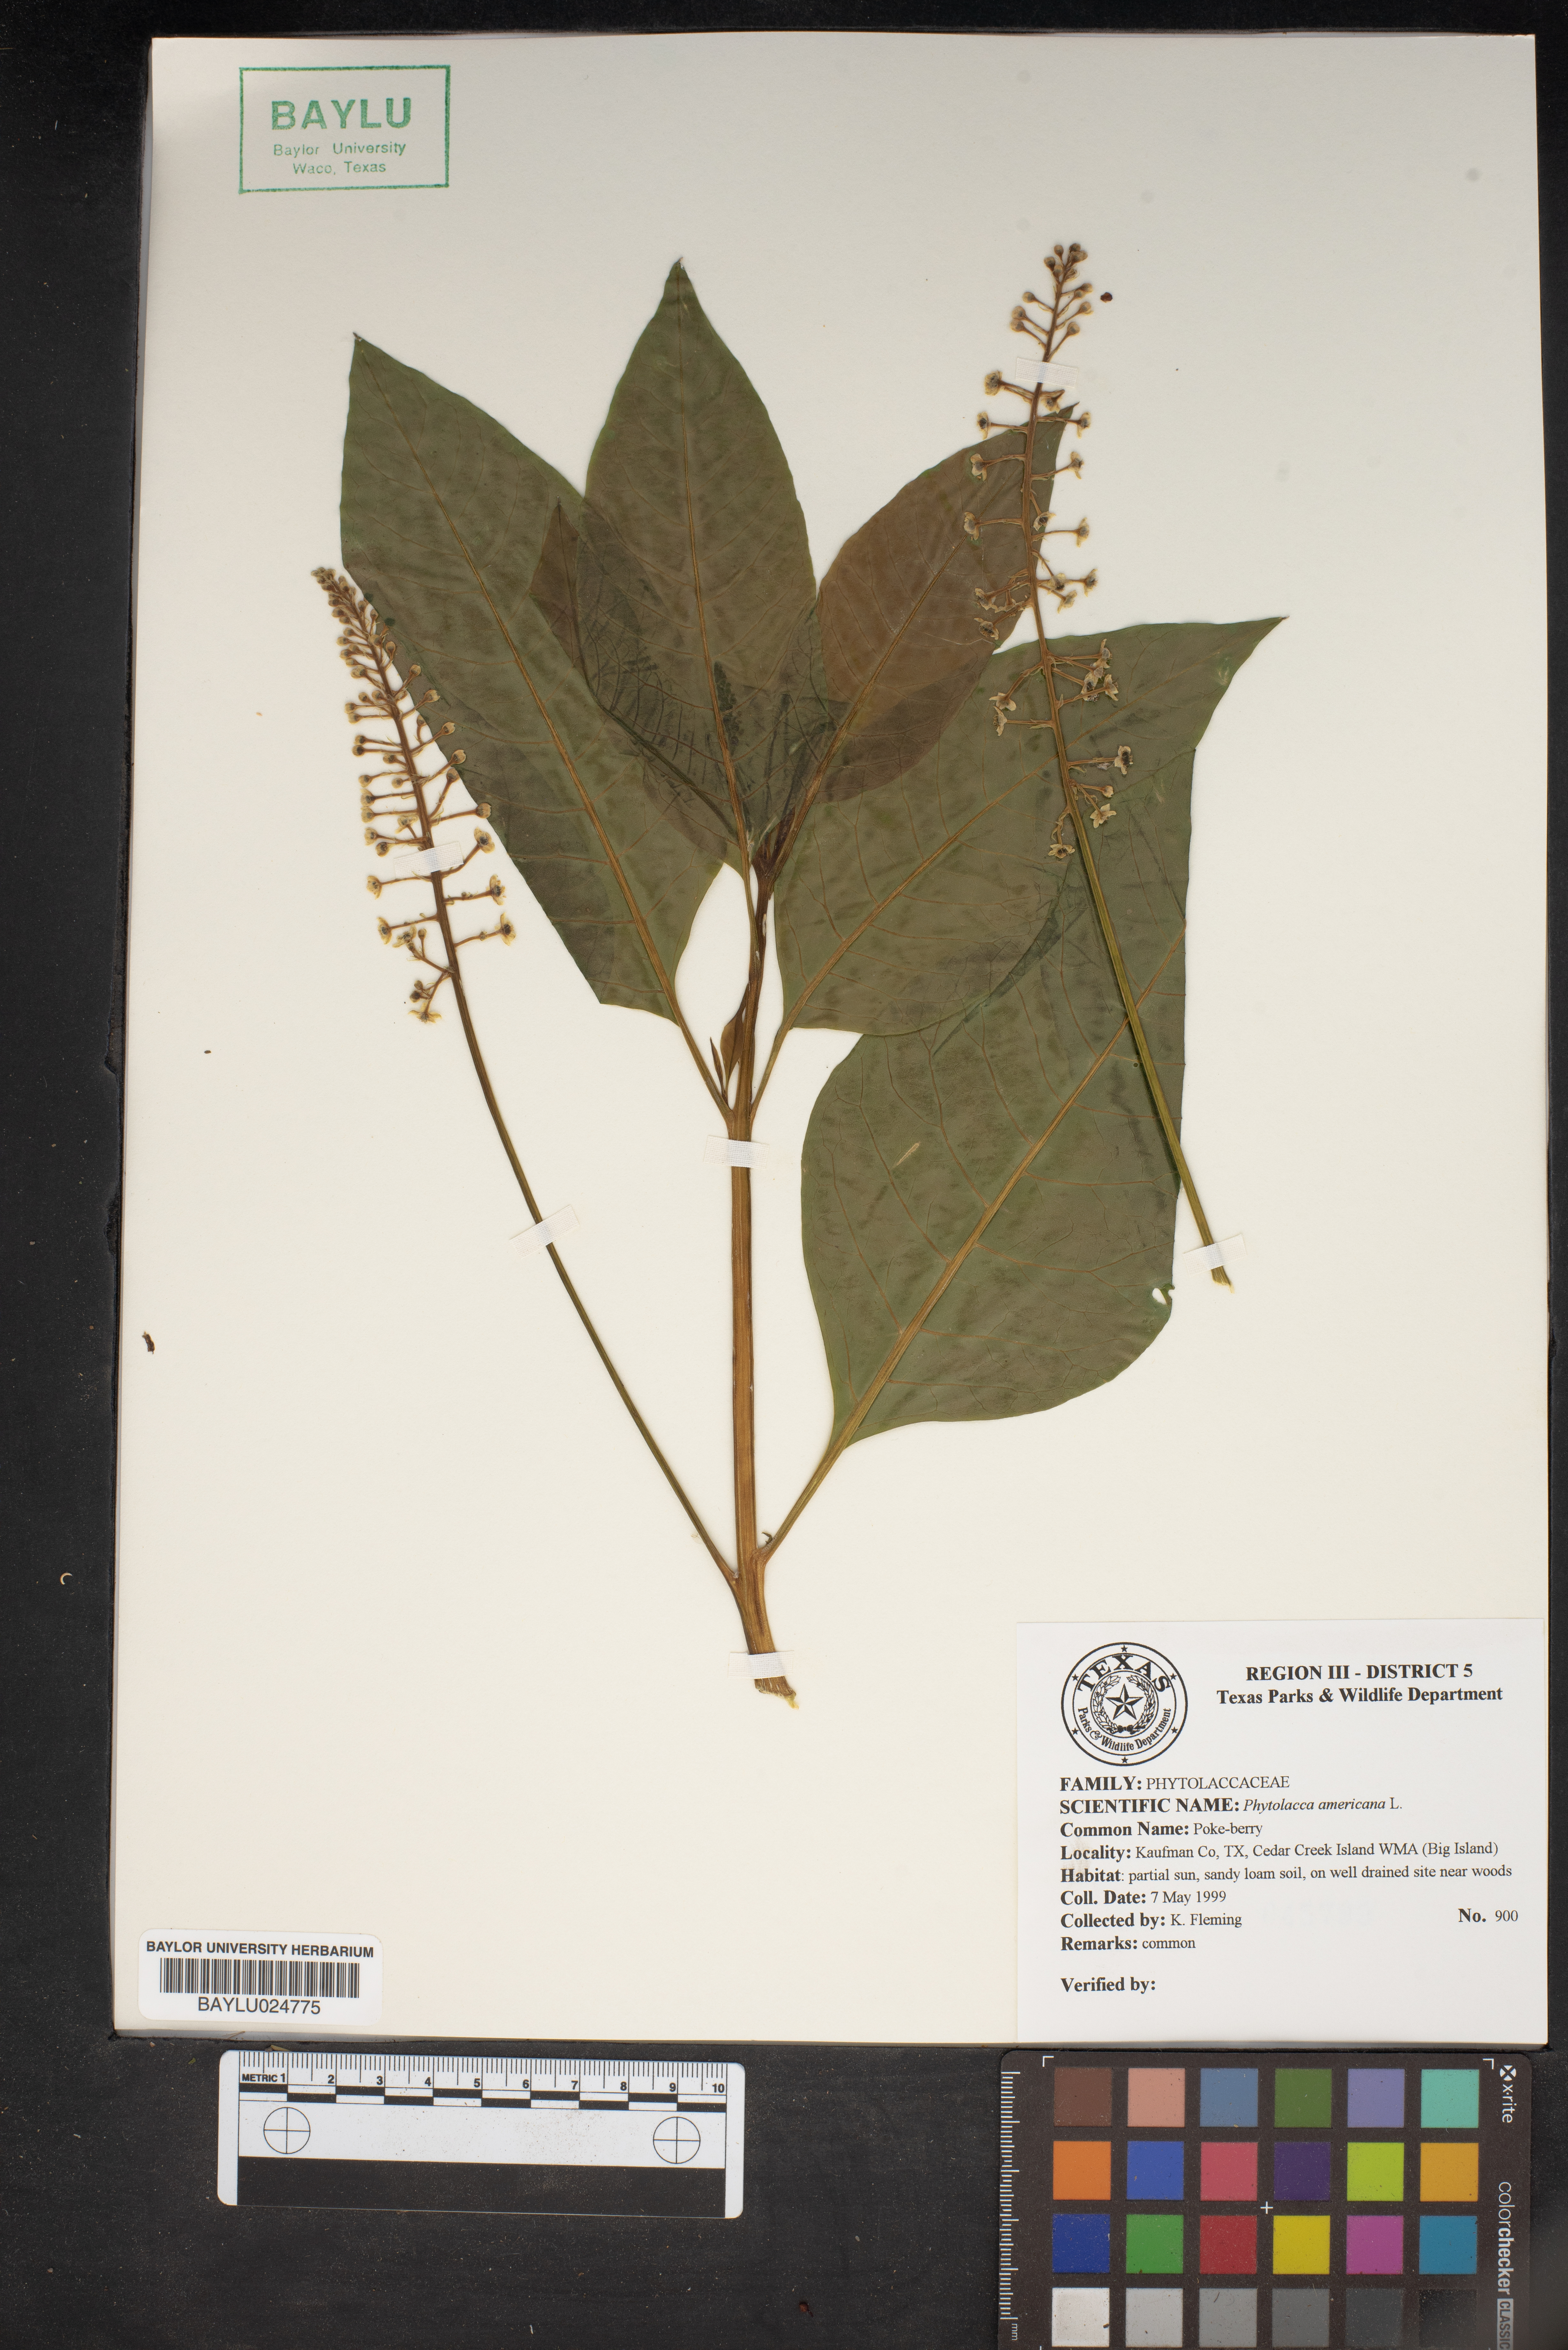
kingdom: Plantae
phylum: Tracheophyta
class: Magnoliopsida
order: Caryophyllales
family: Phytolaccaceae
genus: Phytolacca
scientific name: Phytolacca americana
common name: American pokeweed
